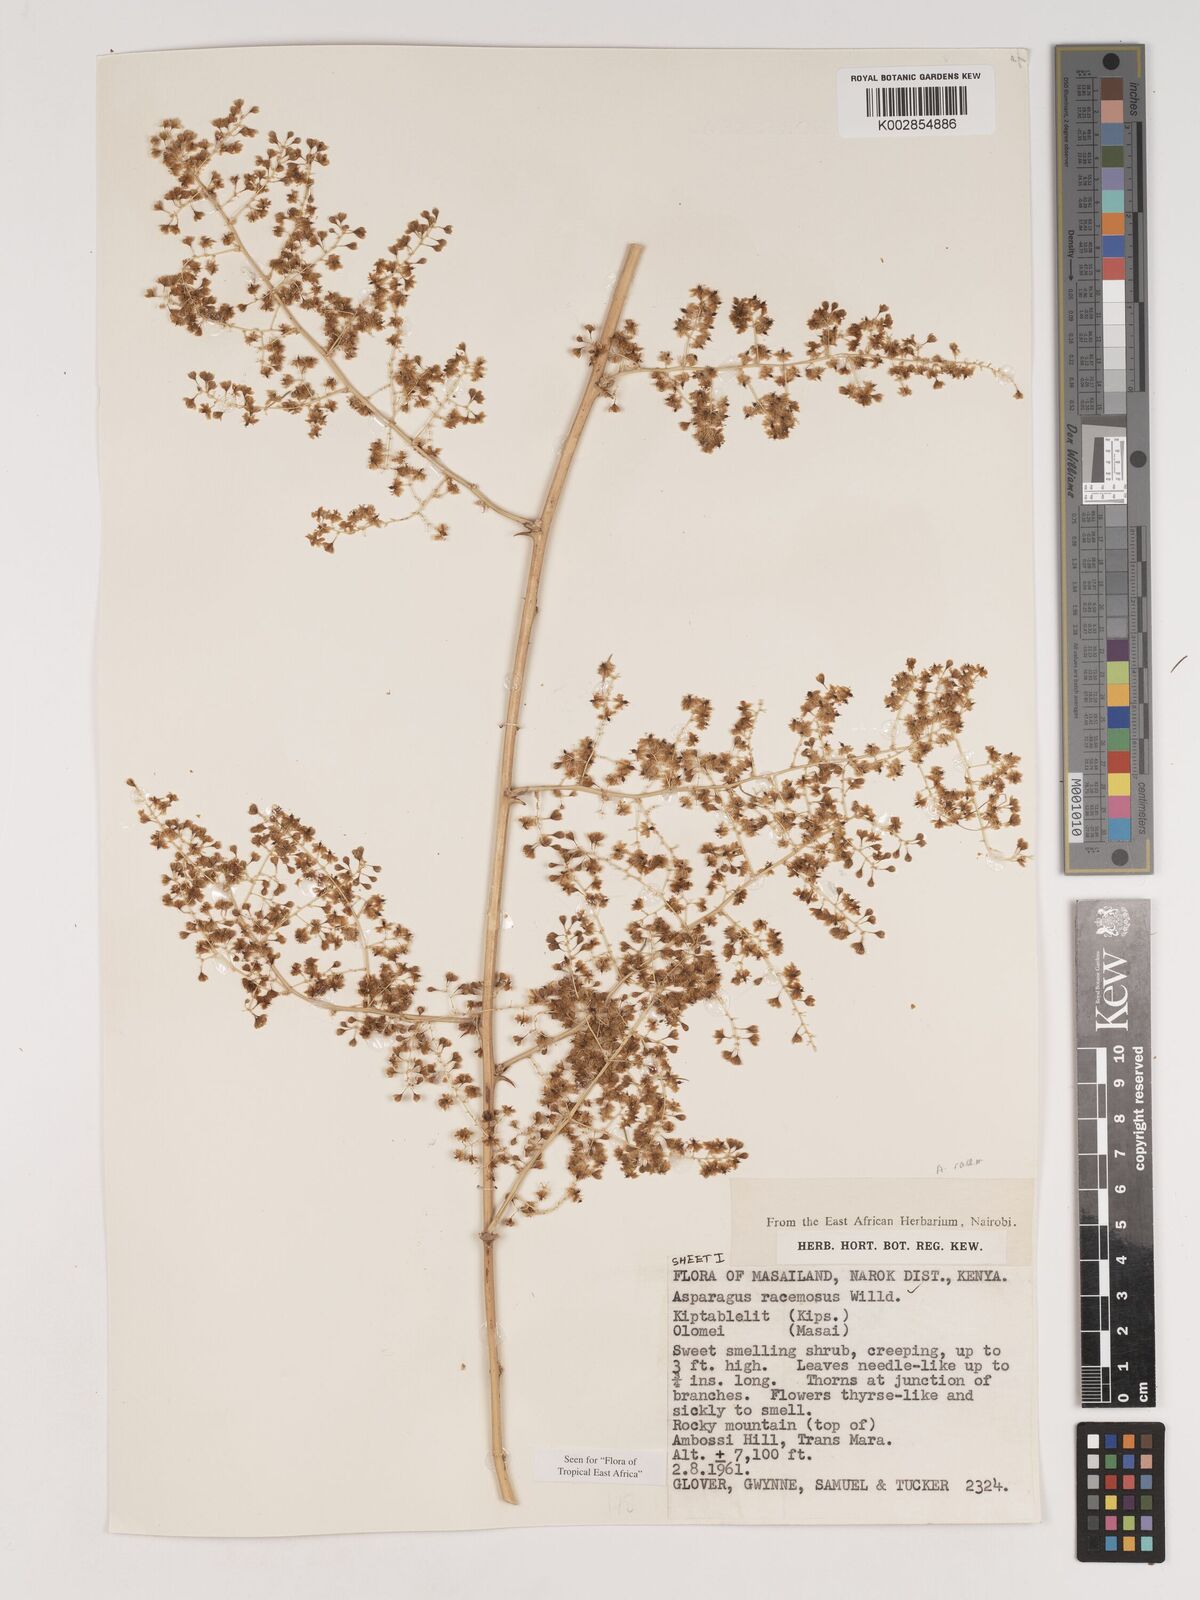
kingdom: Plantae
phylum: Tracheophyta
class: Liliopsida
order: Asparagales
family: Asparagaceae
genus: Asparagus
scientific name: Asparagus racemosus
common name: Asparagus-fern
